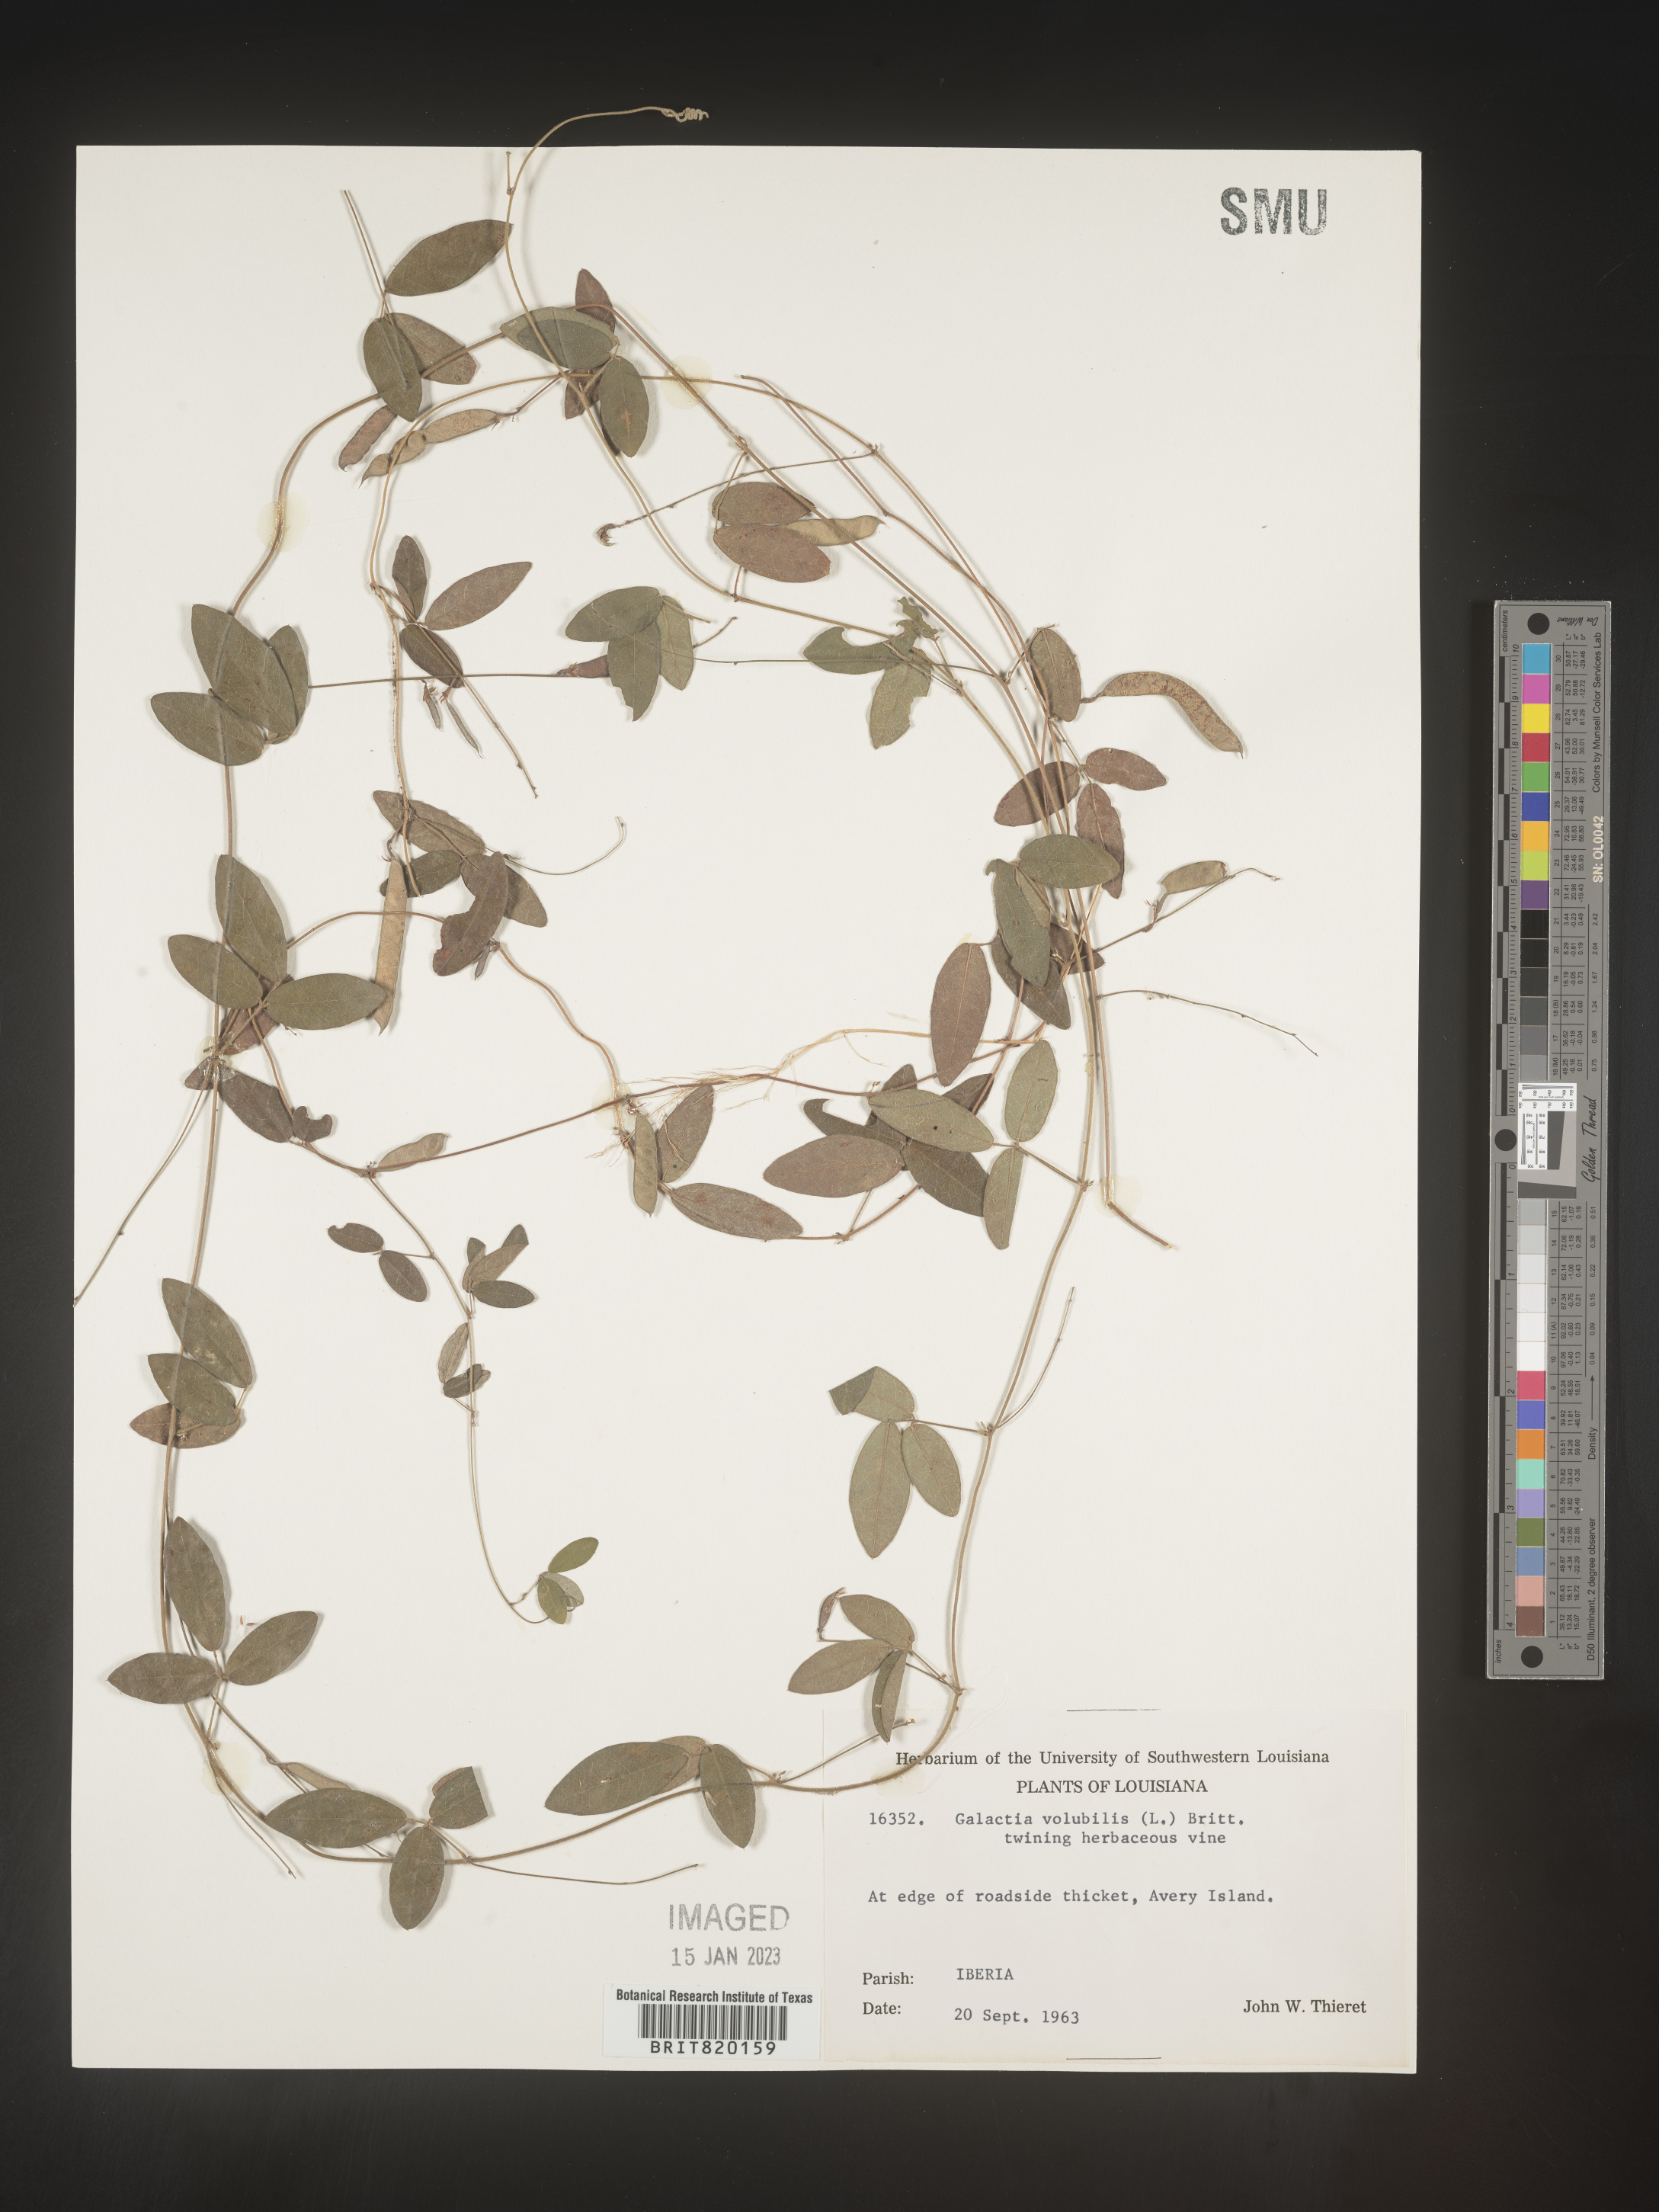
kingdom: Plantae
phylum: Tracheophyta
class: Magnoliopsida
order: Fabales
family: Fabaceae
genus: Galactia
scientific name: Galactia volubilis
